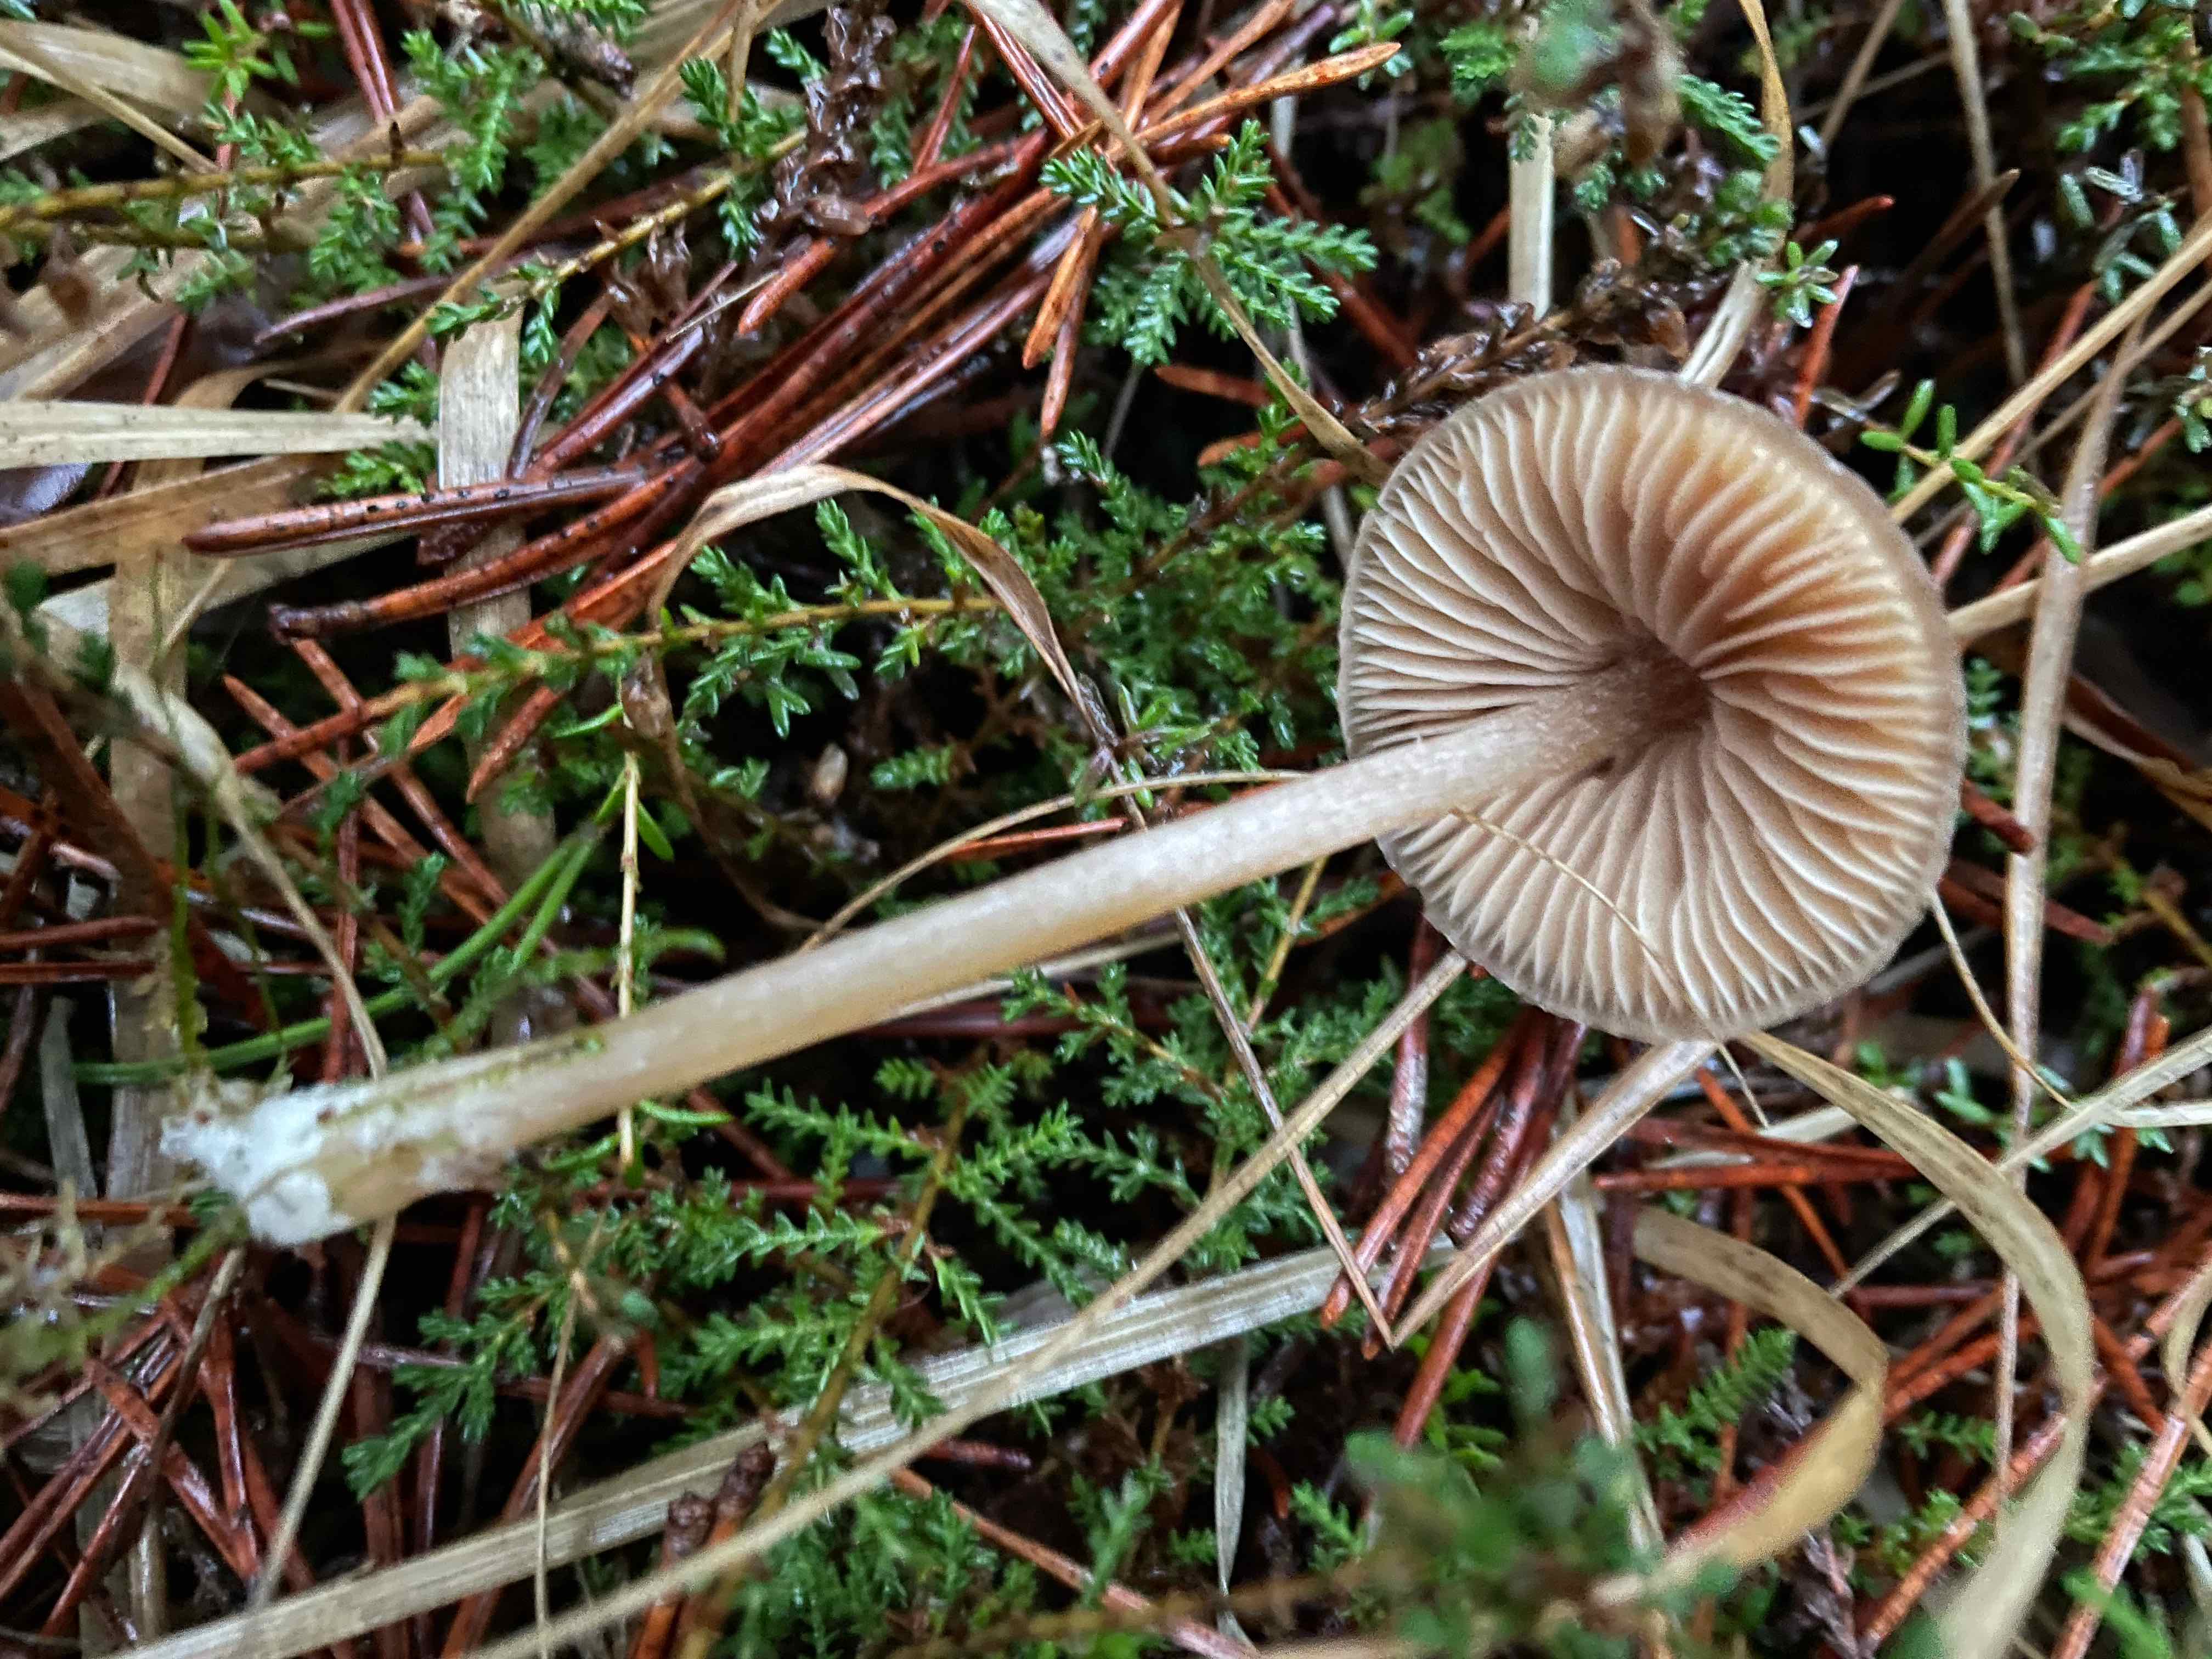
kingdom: Fungi
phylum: Basidiomycota
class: Agaricomycetes
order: Agaricales
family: Entolomataceae
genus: Entoloma
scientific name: Entoloma cetratum
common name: voks-rødblad
